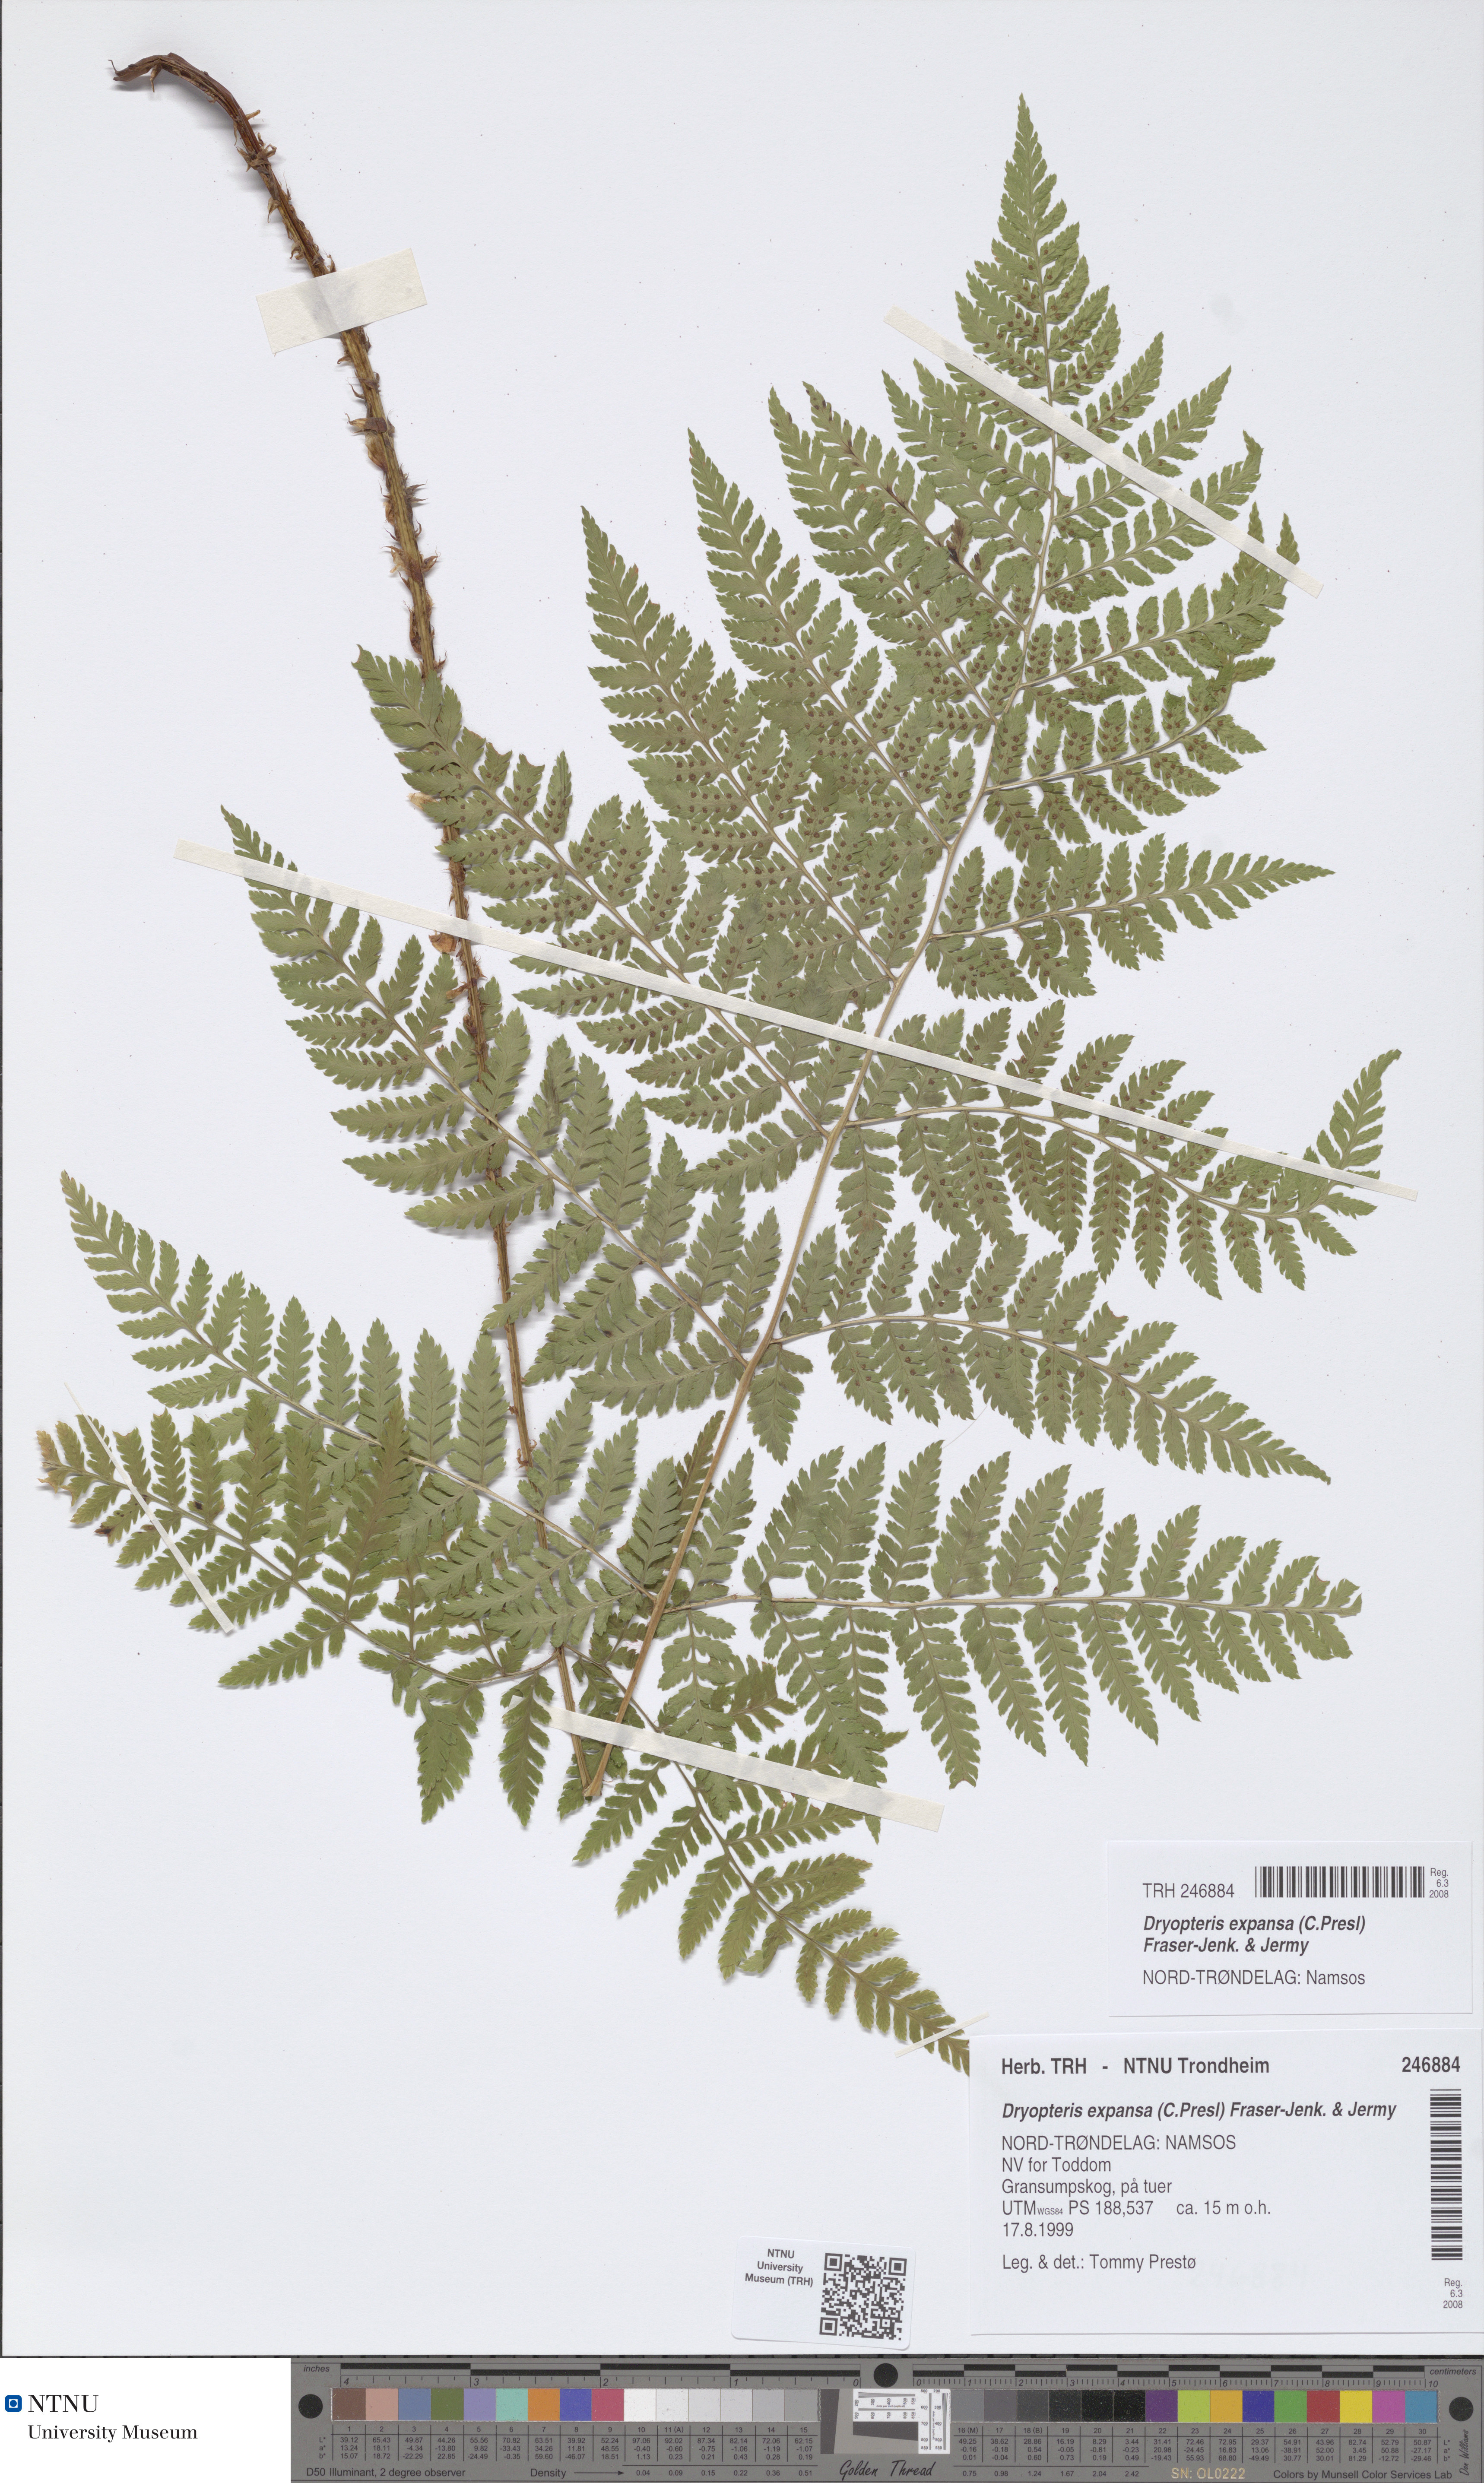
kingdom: Plantae
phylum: Tracheophyta
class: Polypodiopsida
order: Polypodiales
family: Dryopteridaceae
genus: Dryopteris
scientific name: Dryopteris expansa
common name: Northern buckler fern
